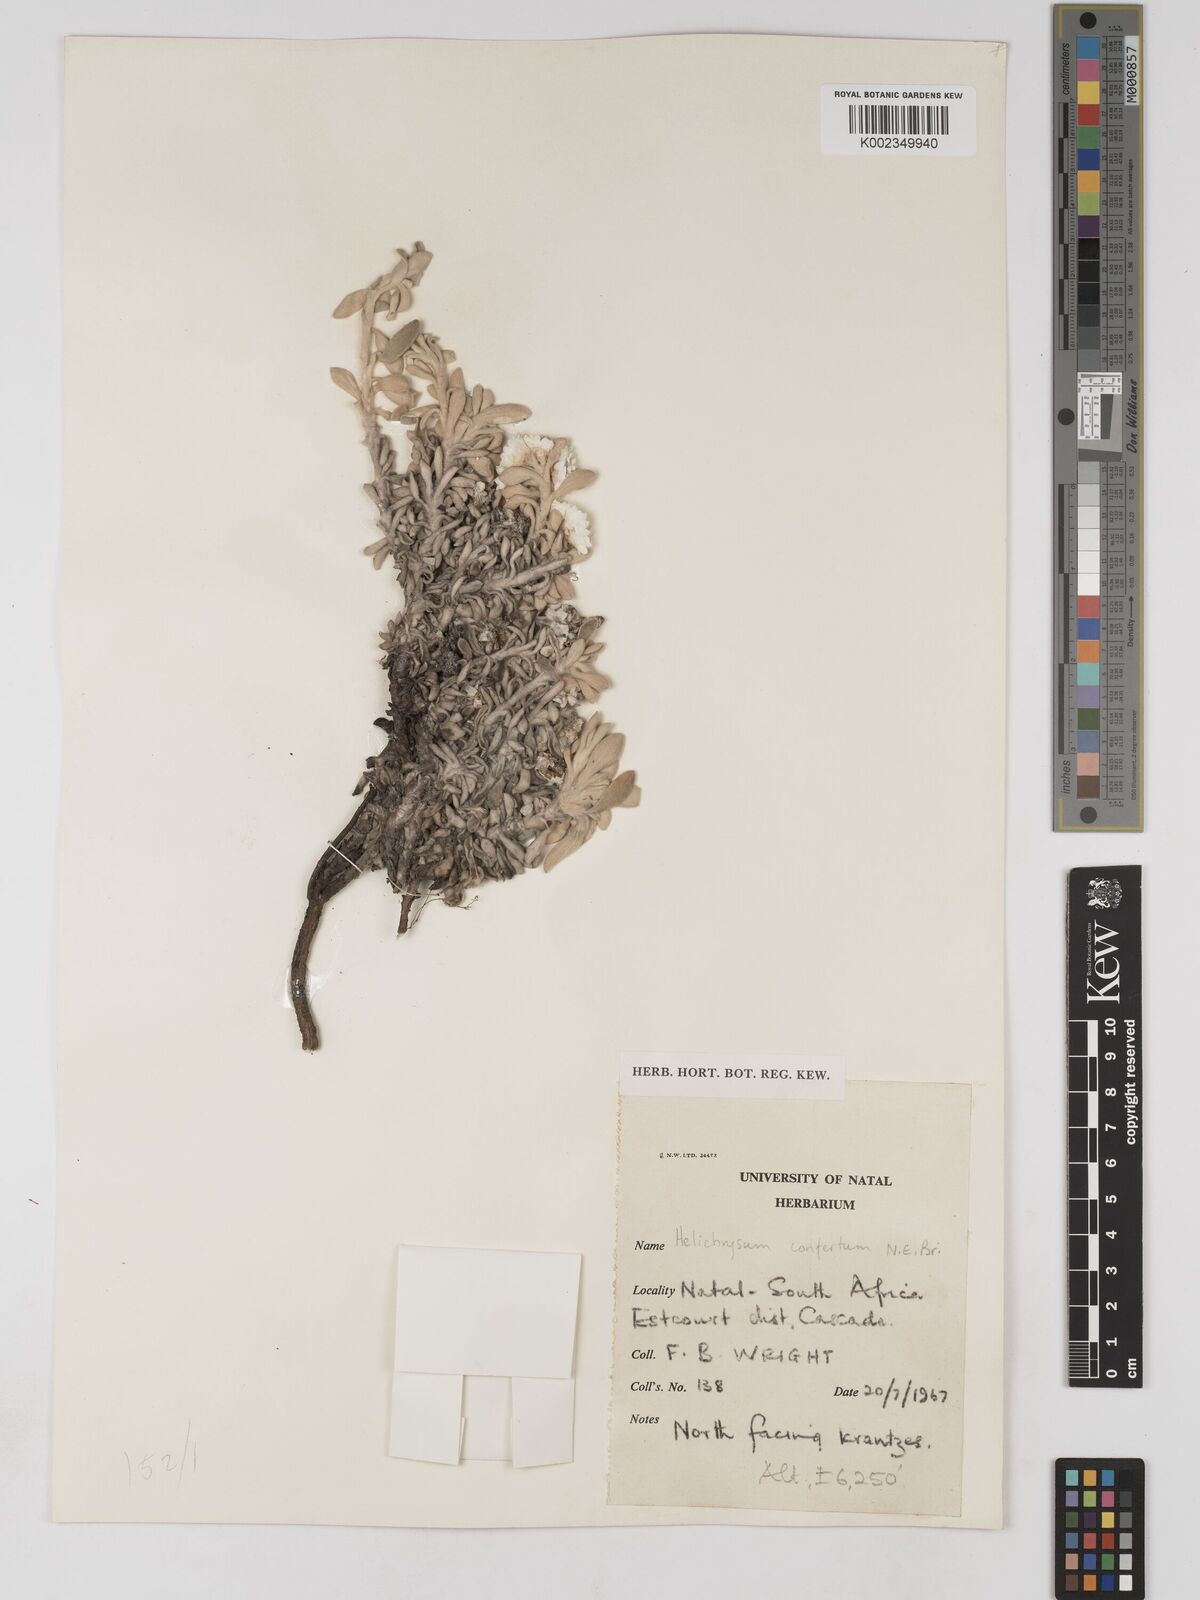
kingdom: Plantae
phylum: Tracheophyta
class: Magnoliopsida
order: Asterales
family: Asteraceae
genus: Helichrysum
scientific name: Helichrysum confertum
